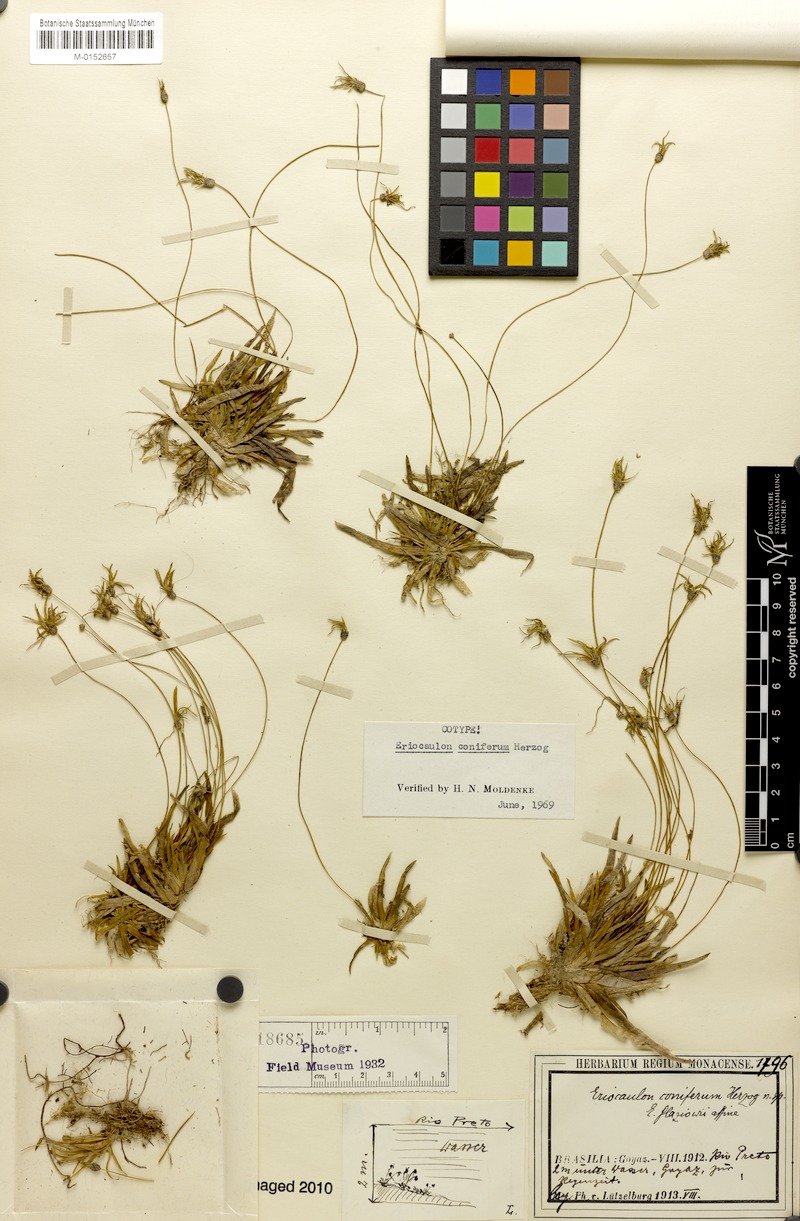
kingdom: Plantae
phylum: Tracheophyta
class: Liliopsida
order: Poales
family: Eriocaulaceae
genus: Eriocaulon
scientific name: Eriocaulon coniferum
